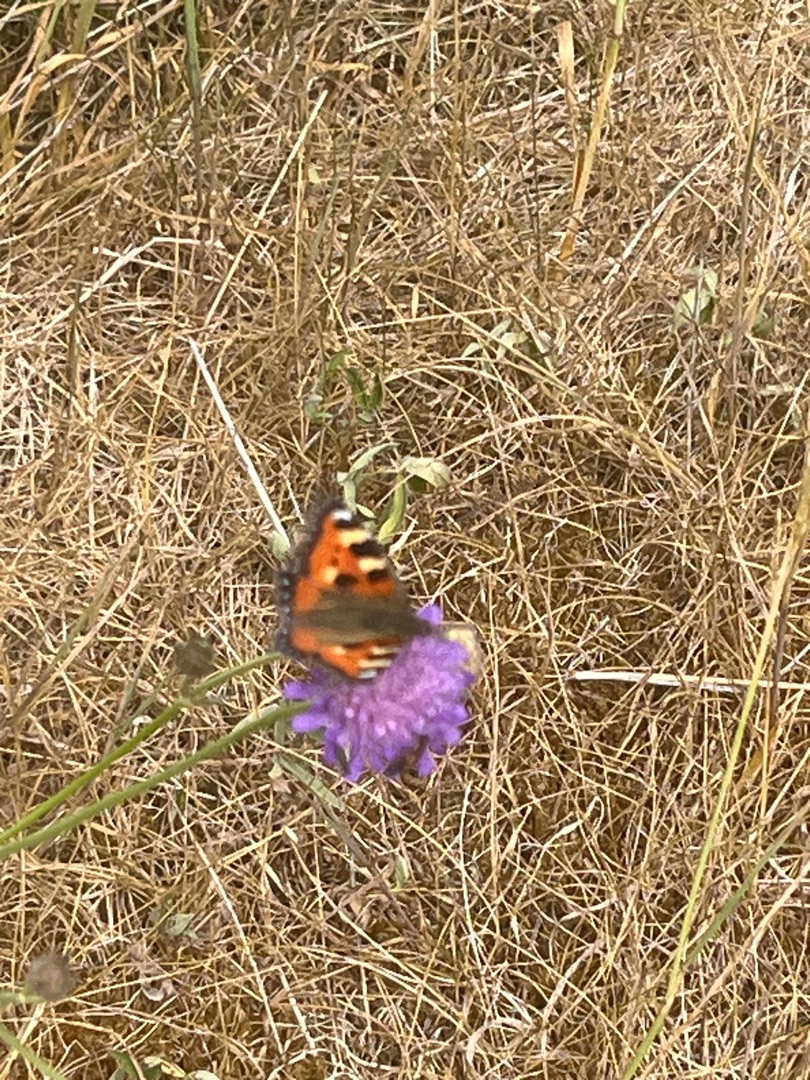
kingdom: Animalia
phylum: Arthropoda
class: Insecta
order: Lepidoptera
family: Nymphalidae
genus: Aglais
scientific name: Aglais urticae
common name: Nældens takvinge
